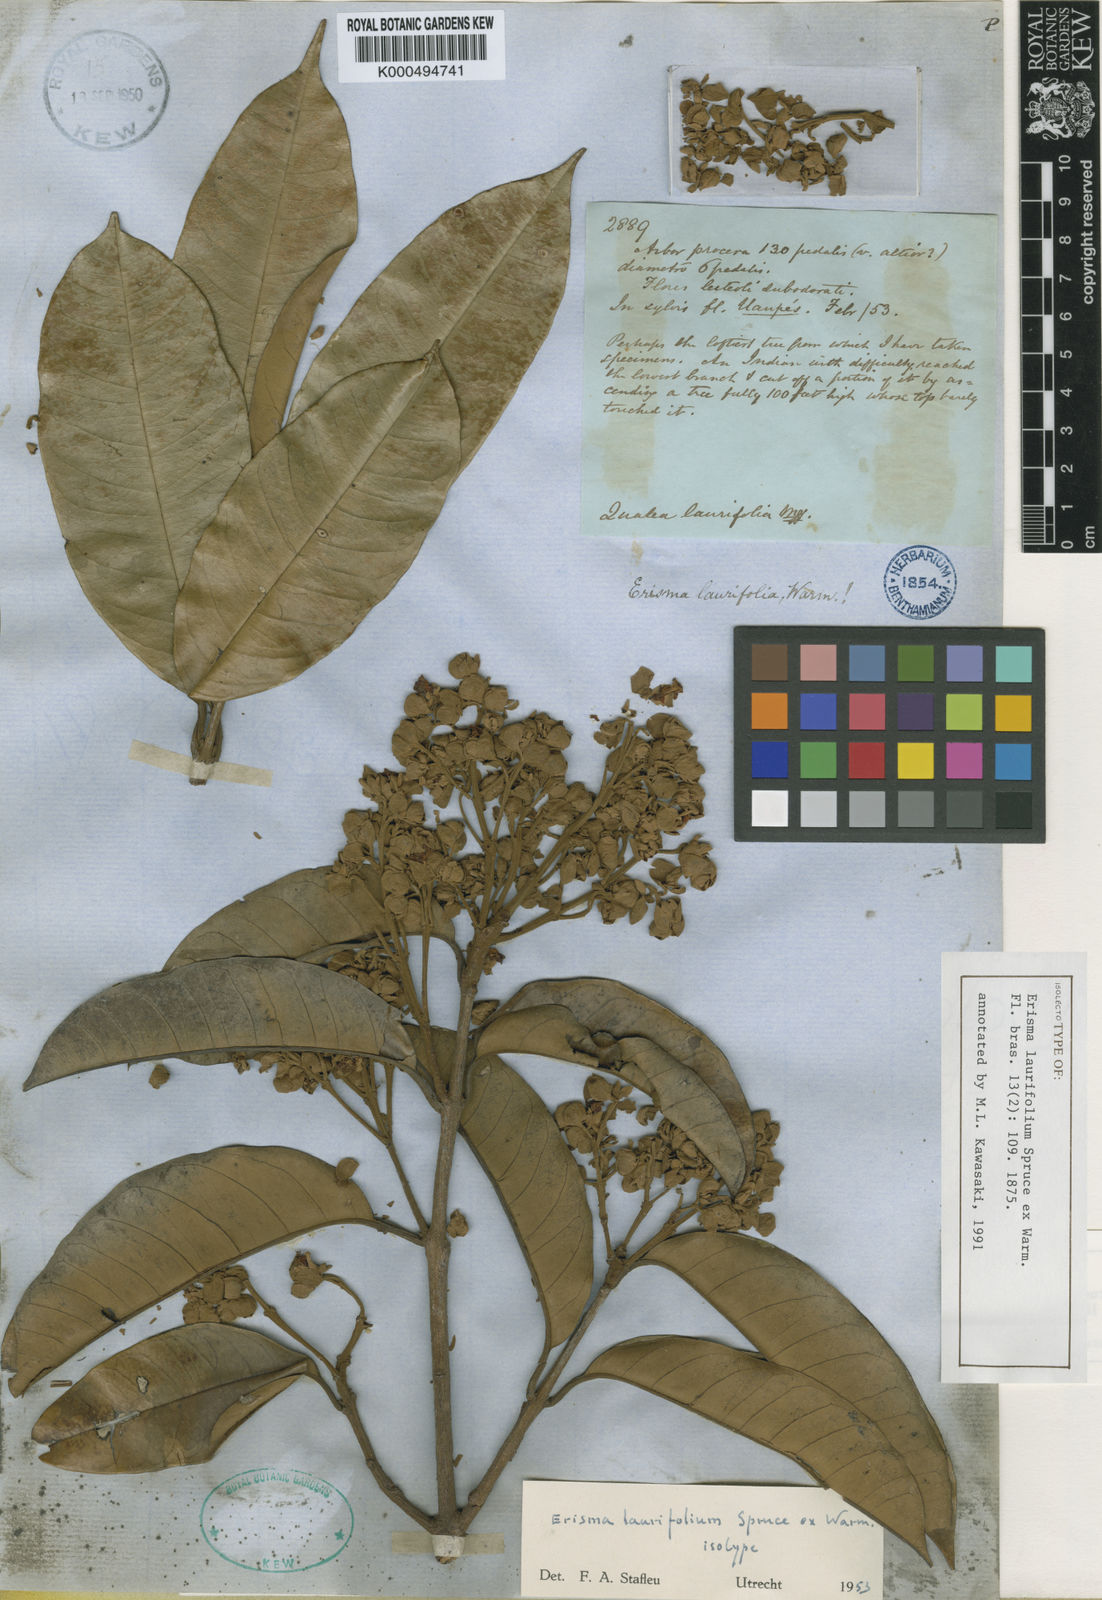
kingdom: Plantae
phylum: Tracheophyta
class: Magnoliopsida
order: Myrtales
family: Vochysiaceae
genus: Erisma
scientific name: Erisma laurifolium
